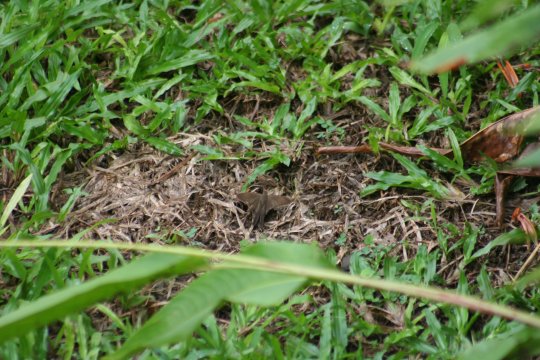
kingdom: Animalia
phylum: Arthropoda
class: Insecta
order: Lepidoptera
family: Hesperiidae
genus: Urbanus
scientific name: Urbanus simplicius
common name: Plain Longtail
